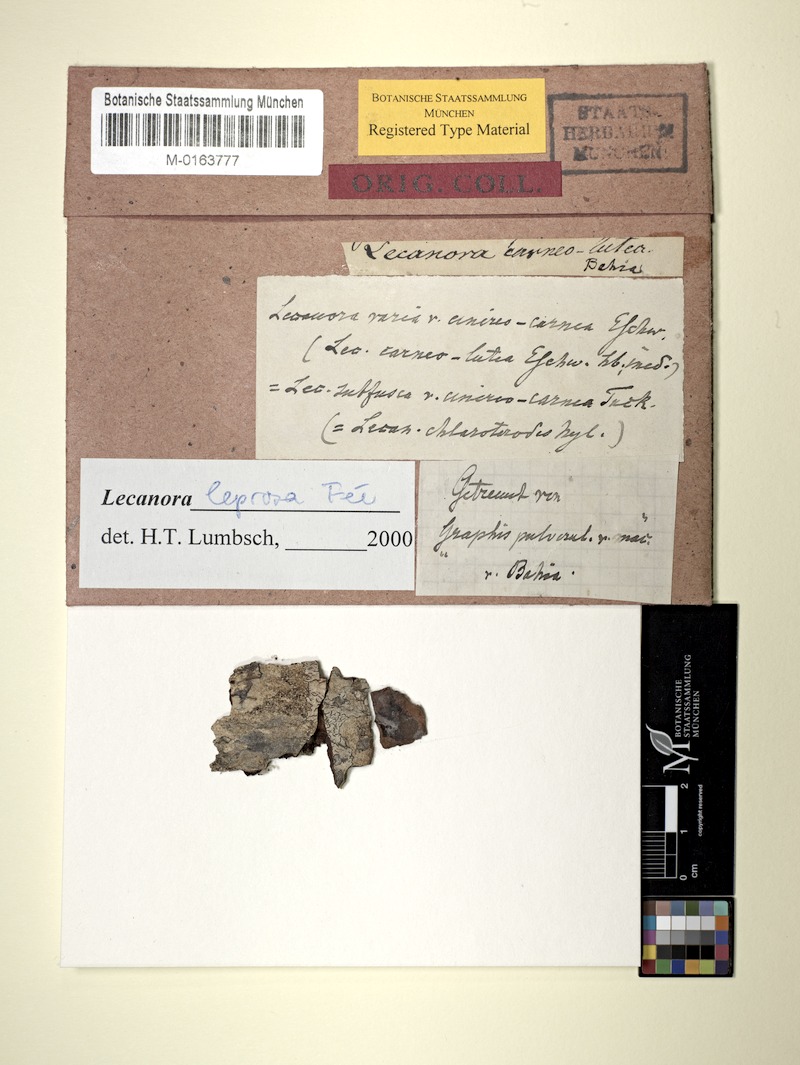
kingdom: Fungi
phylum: Ascomycota
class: Lecanoromycetes
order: Lecanorales
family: Lecanoraceae
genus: Lecanora
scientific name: Lecanora leprosa
